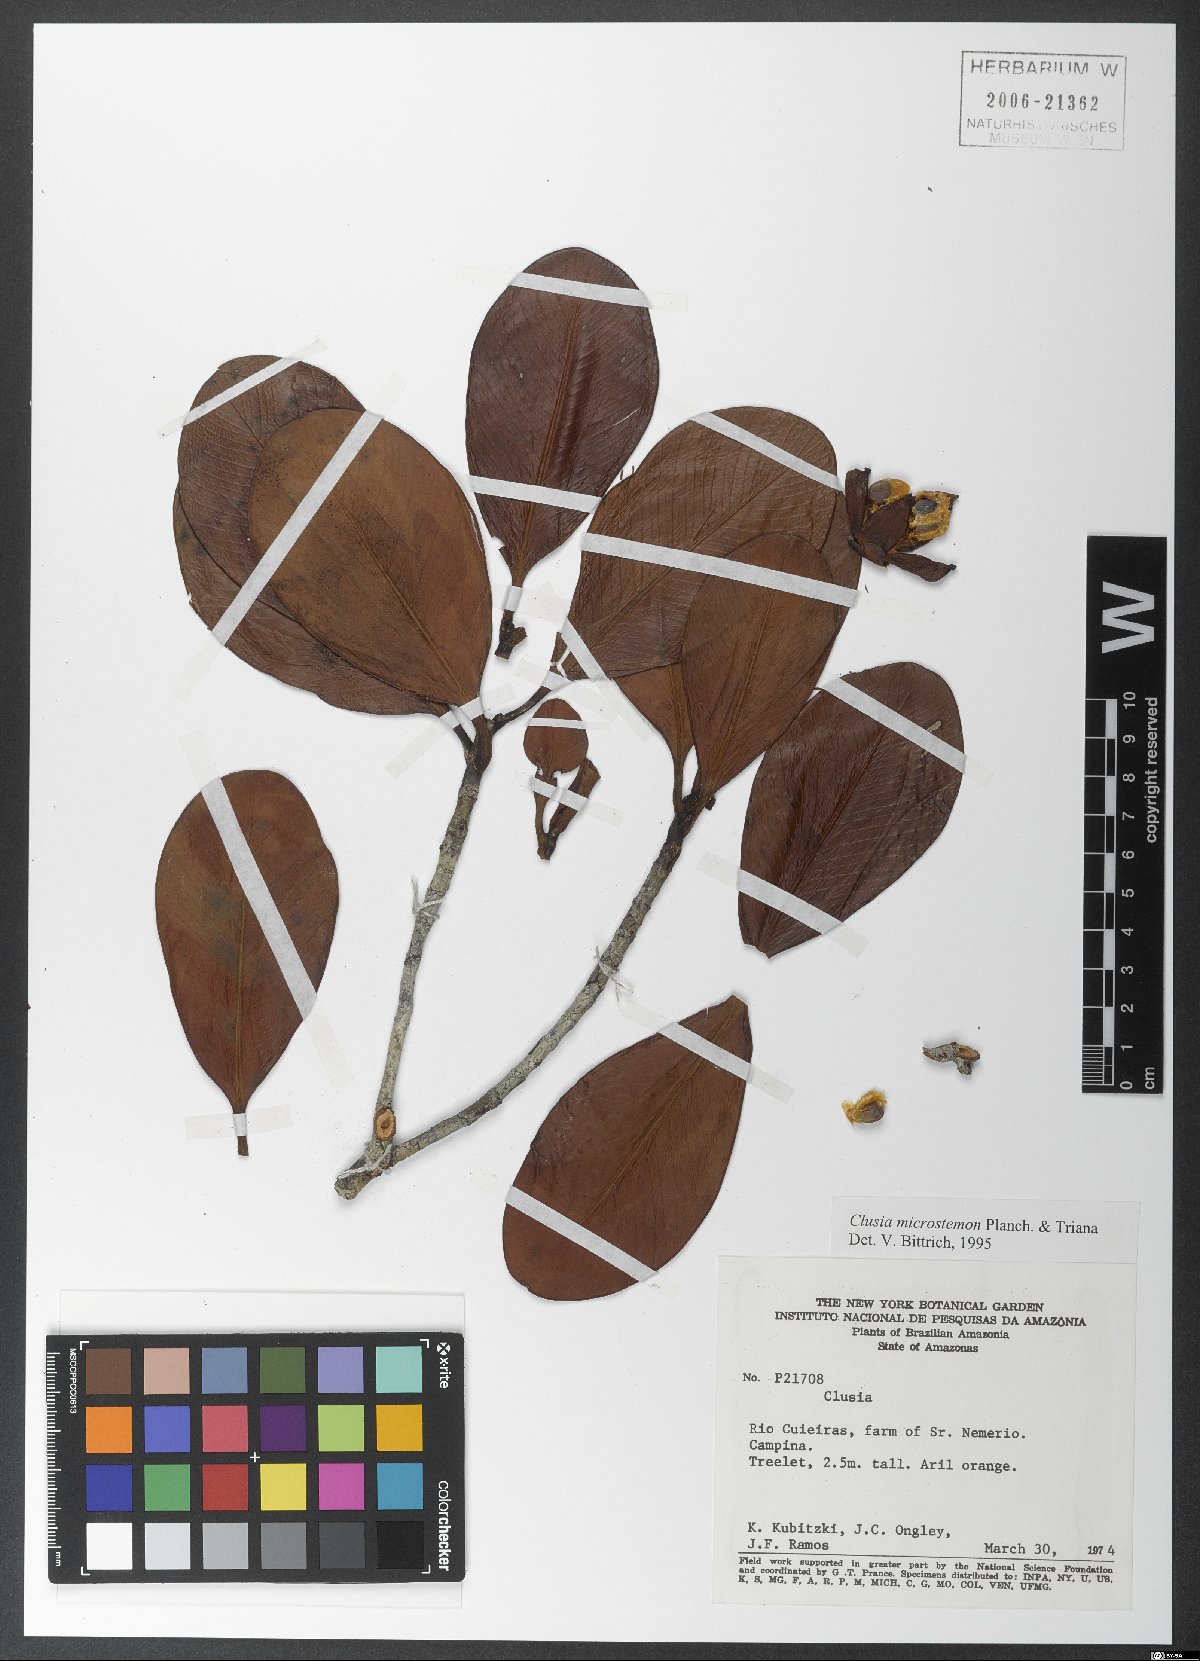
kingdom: Plantae
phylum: Tracheophyta
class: Magnoliopsida
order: Malpighiales
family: Clusiaceae
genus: Clusia
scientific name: Clusia microstemon
